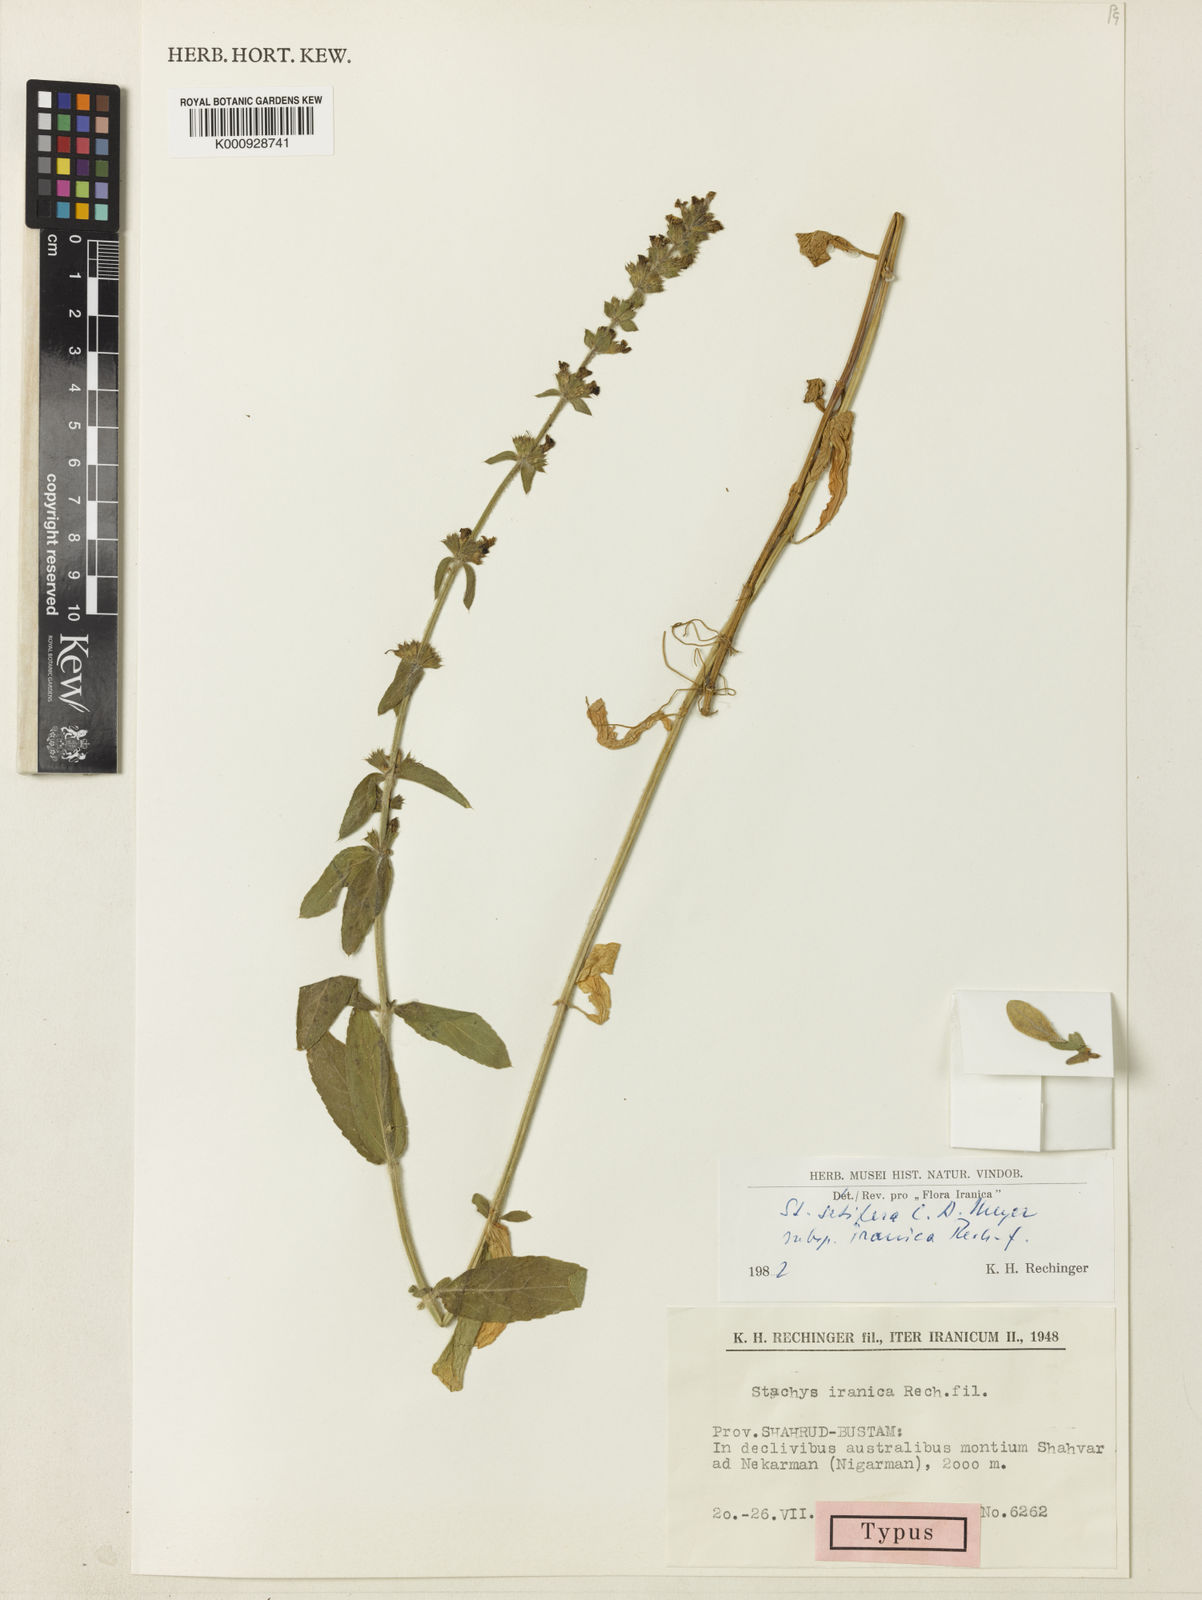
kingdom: Plantae
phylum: Tracheophyta
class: Magnoliopsida
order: Lamiales
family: Lamiaceae
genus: Stachys
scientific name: Stachys setifera
